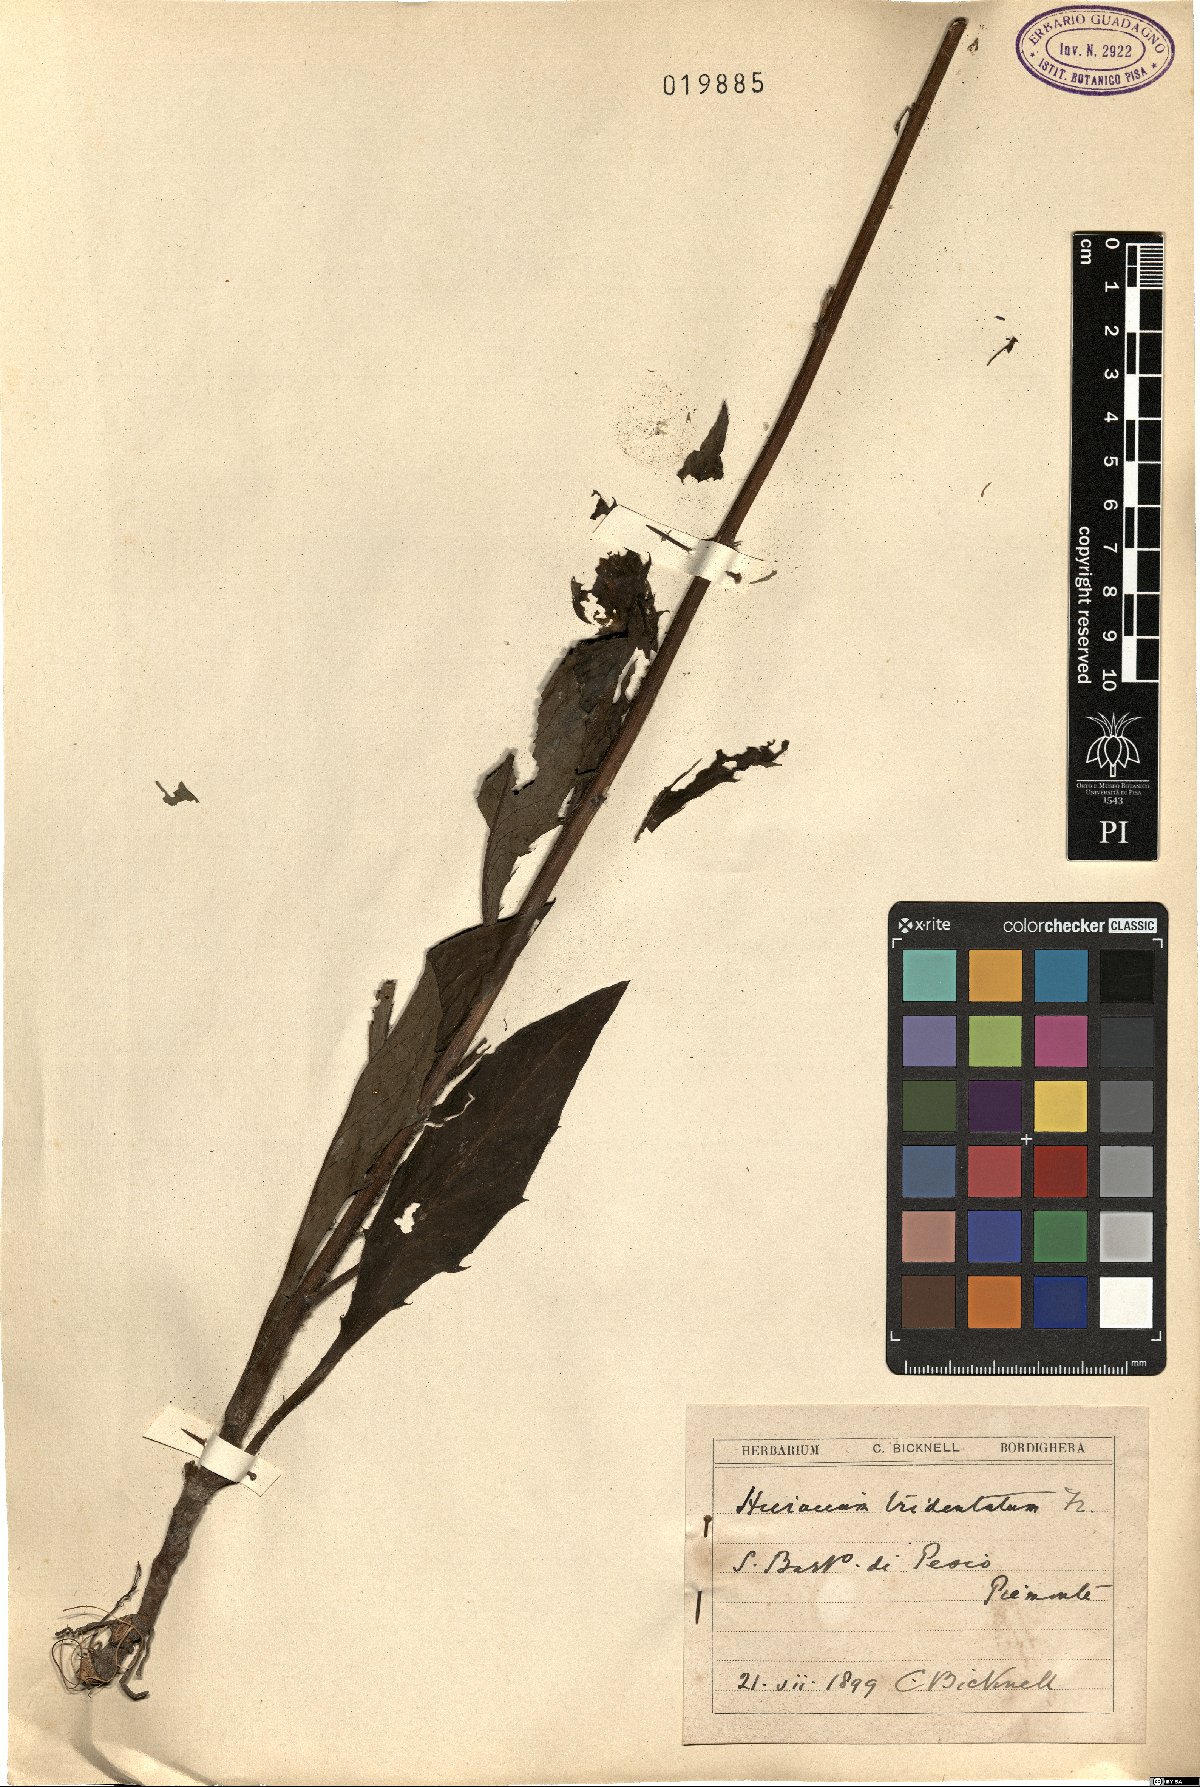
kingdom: Plantae
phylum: Tracheophyta
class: Magnoliopsida
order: Asterales
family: Asteraceae
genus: Hieracium
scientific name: Hieracium tridentatum
